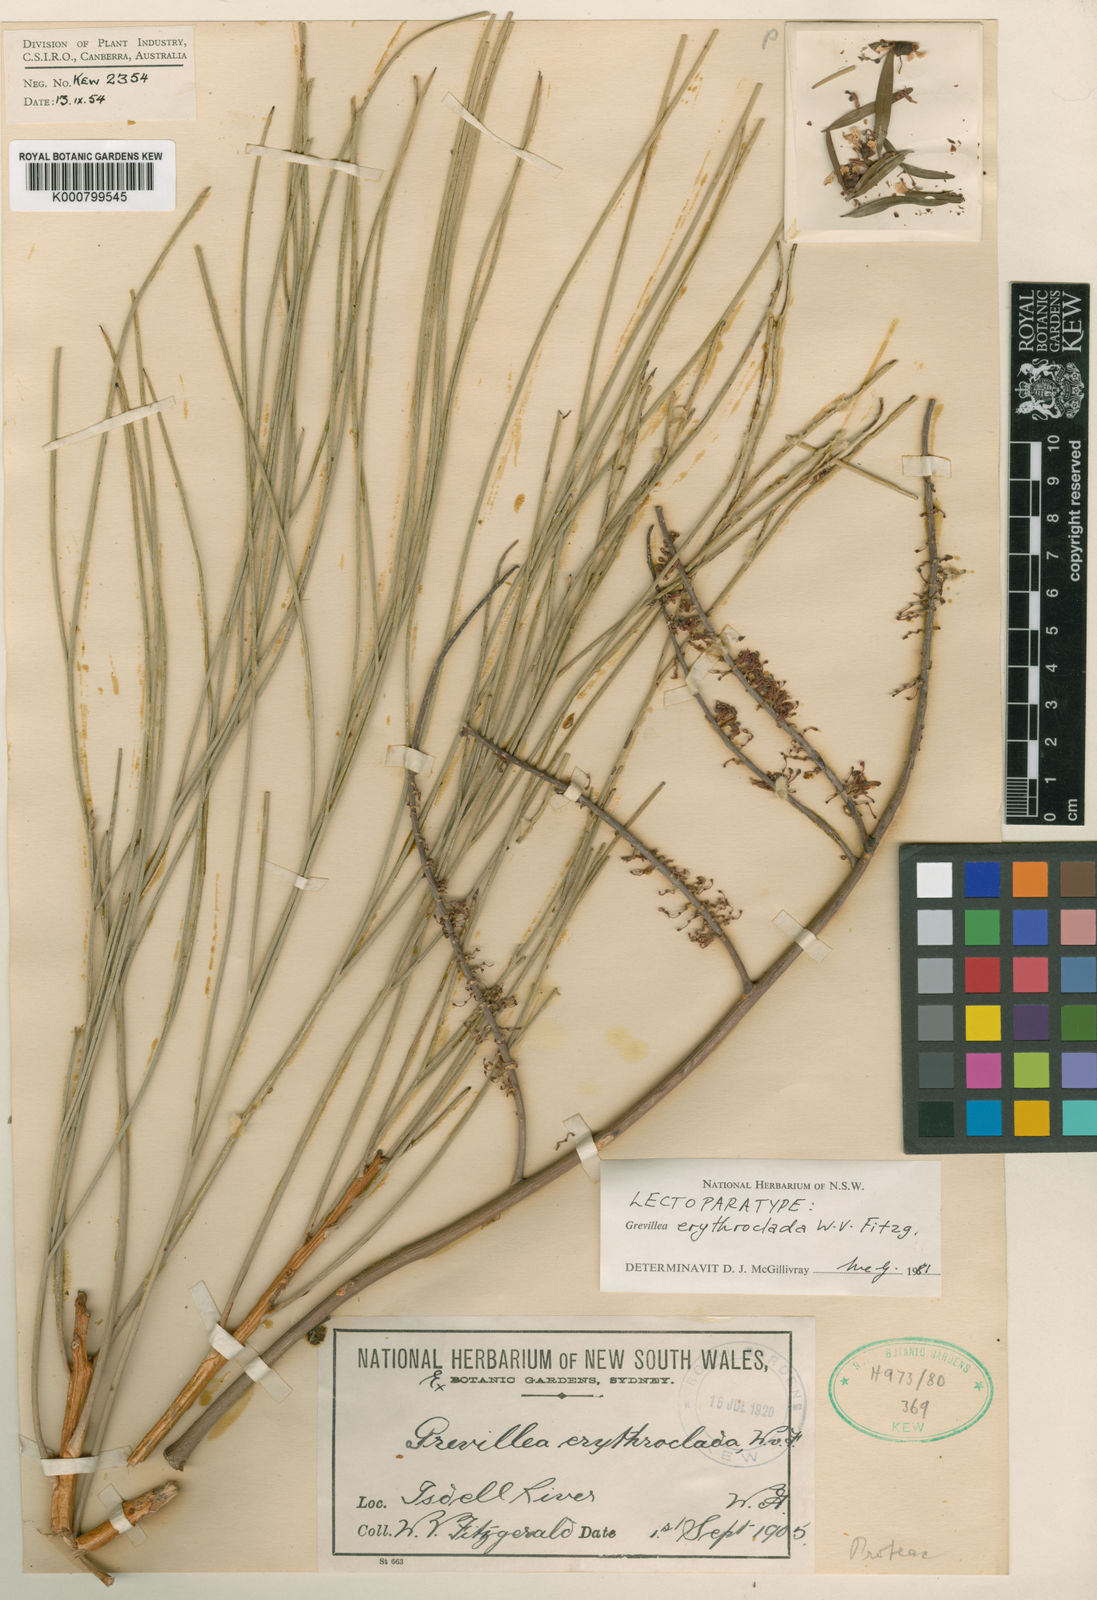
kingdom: Plantae
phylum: Tracheophyta
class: Magnoliopsida
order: Proteales
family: Proteaceae
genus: Grevillea
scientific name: Grevillea erythroclada
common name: Needle-leaf grevillea
